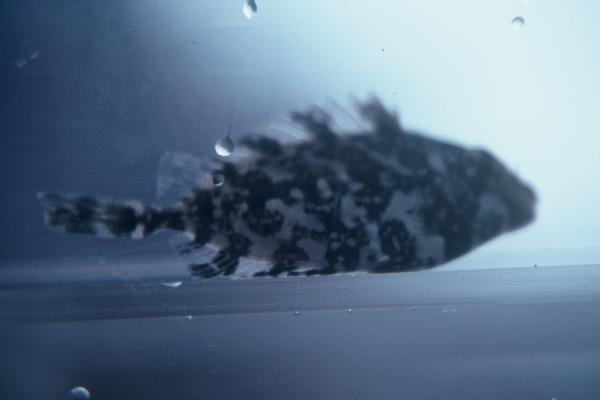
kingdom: Animalia
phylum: Chordata
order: Perciformes
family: Siganidae
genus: Siganus
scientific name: Siganus rivulatus
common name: Marbled spinefoot
